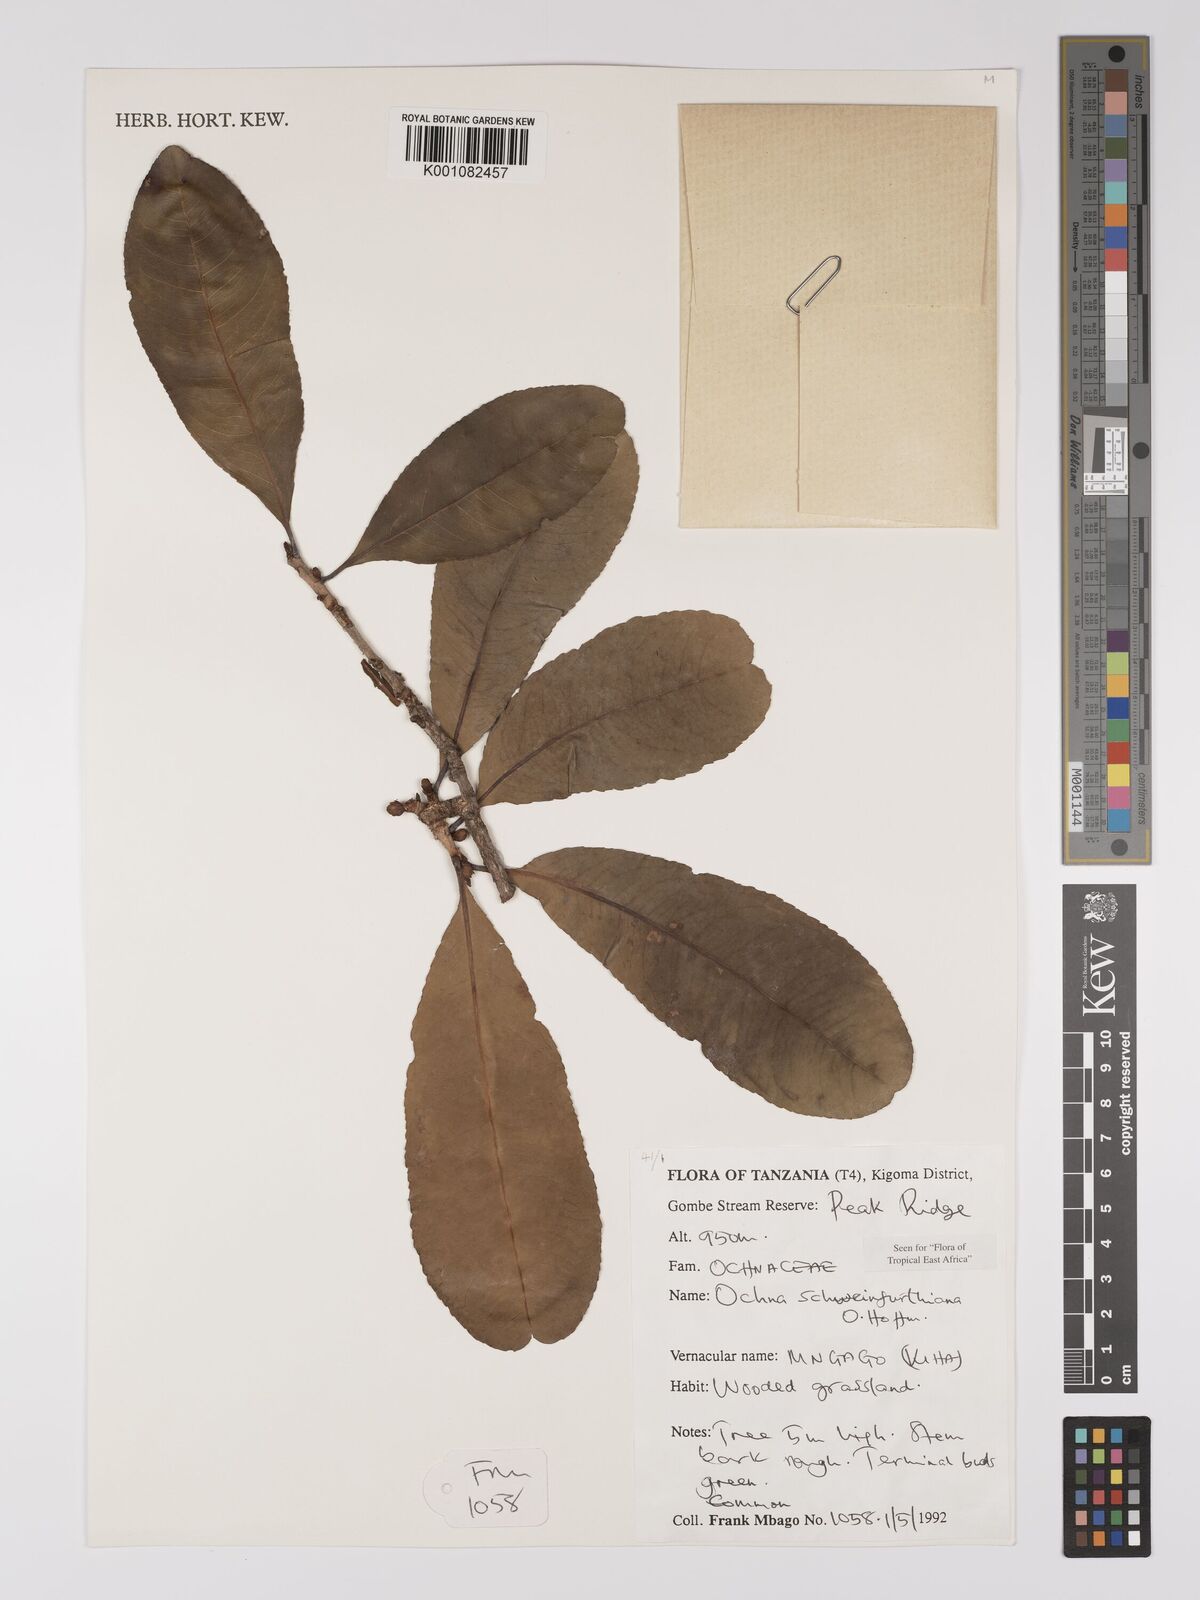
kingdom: Plantae
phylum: Tracheophyta
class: Magnoliopsida
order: Malpighiales
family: Ochnaceae
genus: Ochna
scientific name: Ochna schweinfurthiana
